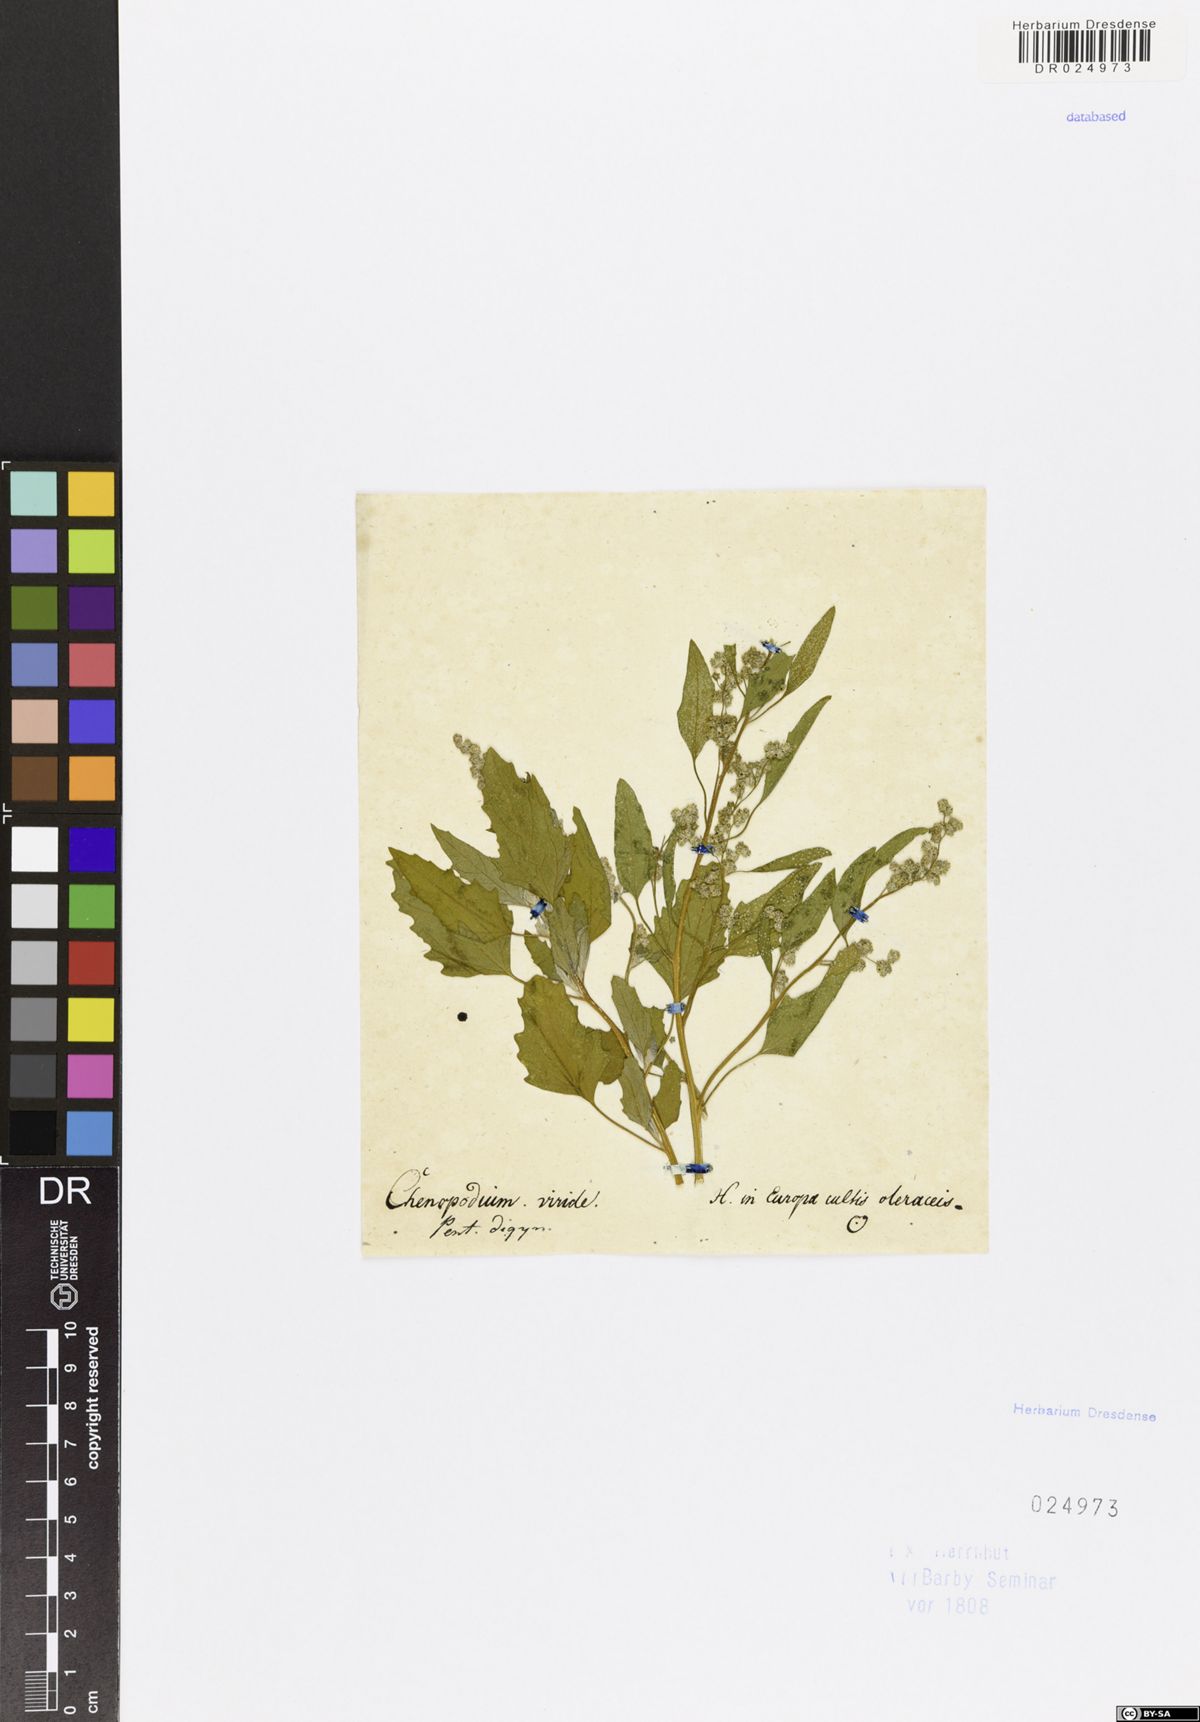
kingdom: Plantae
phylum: Tracheophyta
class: Magnoliopsida
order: Caryophyllales
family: Amaranthaceae
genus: Chenopodium
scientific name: Chenopodium suecicum
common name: Swedish goosefoot
